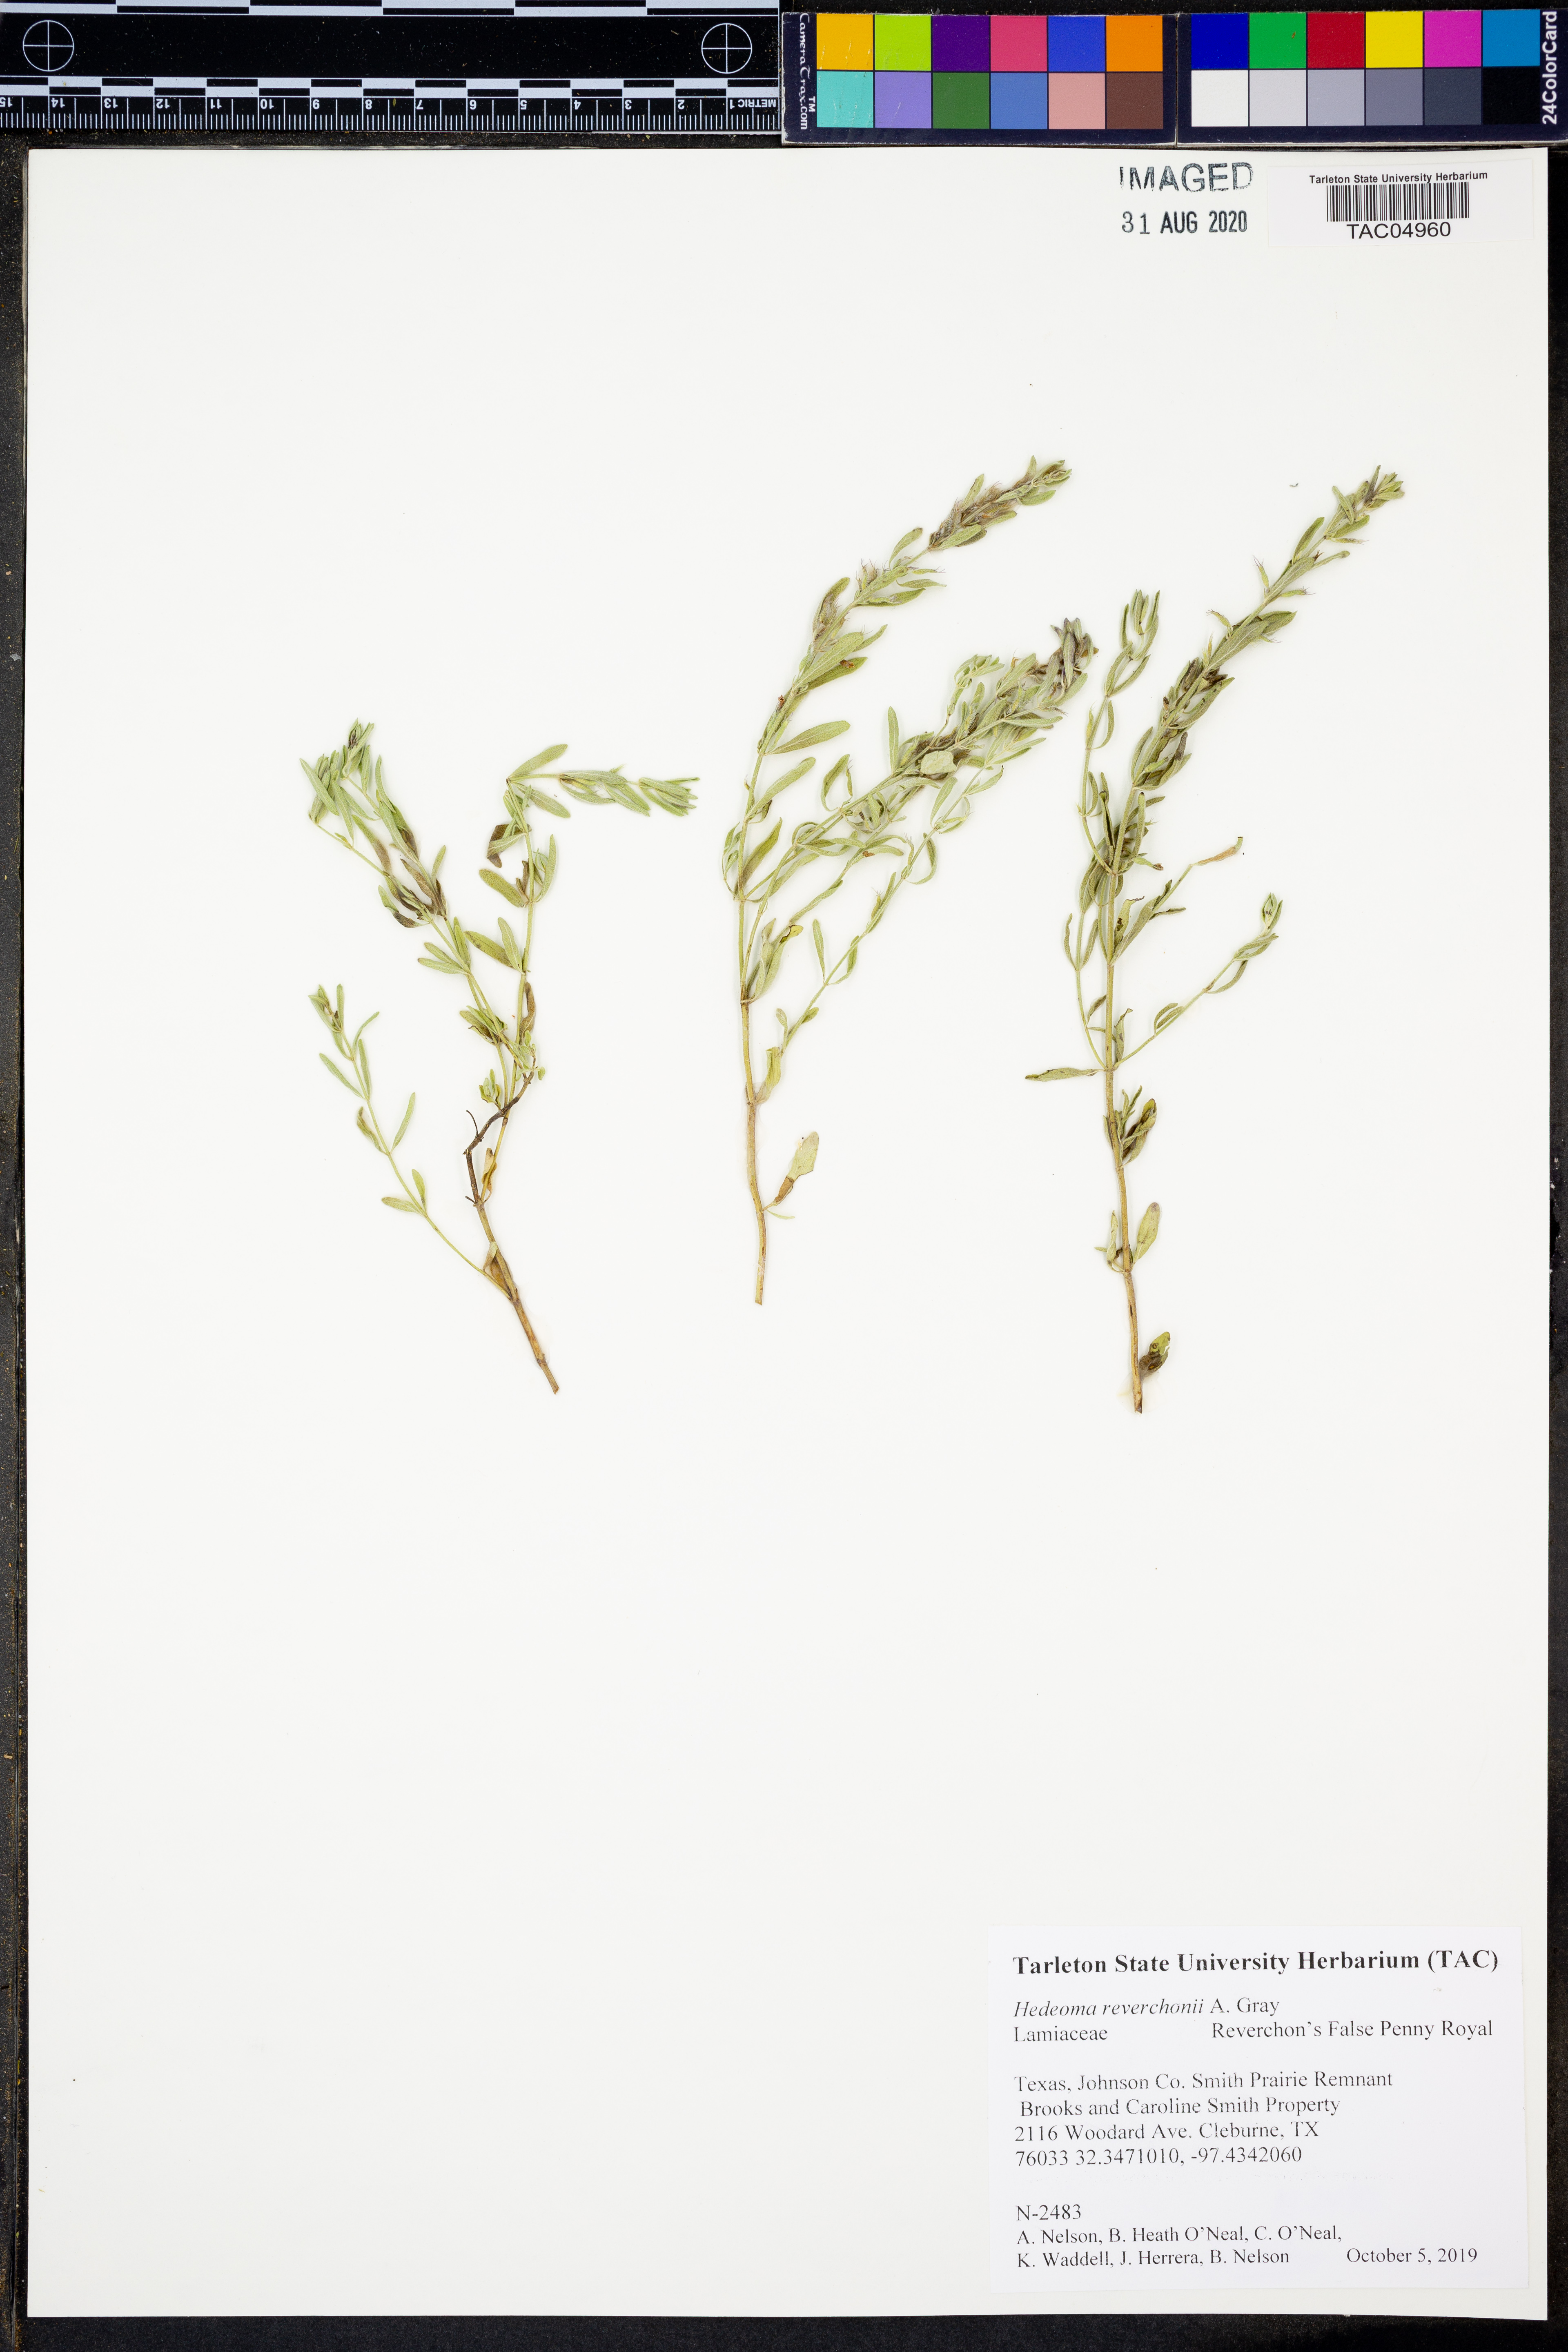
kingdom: Plantae
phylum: Tracheophyta
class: Magnoliopsida
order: Lamiales
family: Lamiaceae
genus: Hedeoma
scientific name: Hedeoma reverchonii
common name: Reverchon's false penny-royal
